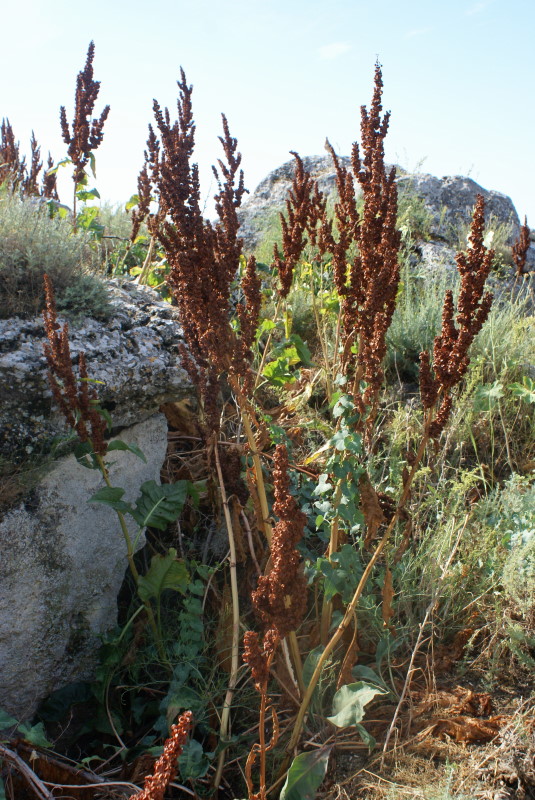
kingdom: Plantae
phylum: Tracheophyta
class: Magnoliopsida
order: Caryophyllales
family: Polygonaceae
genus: Rumex
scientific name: Rumex
